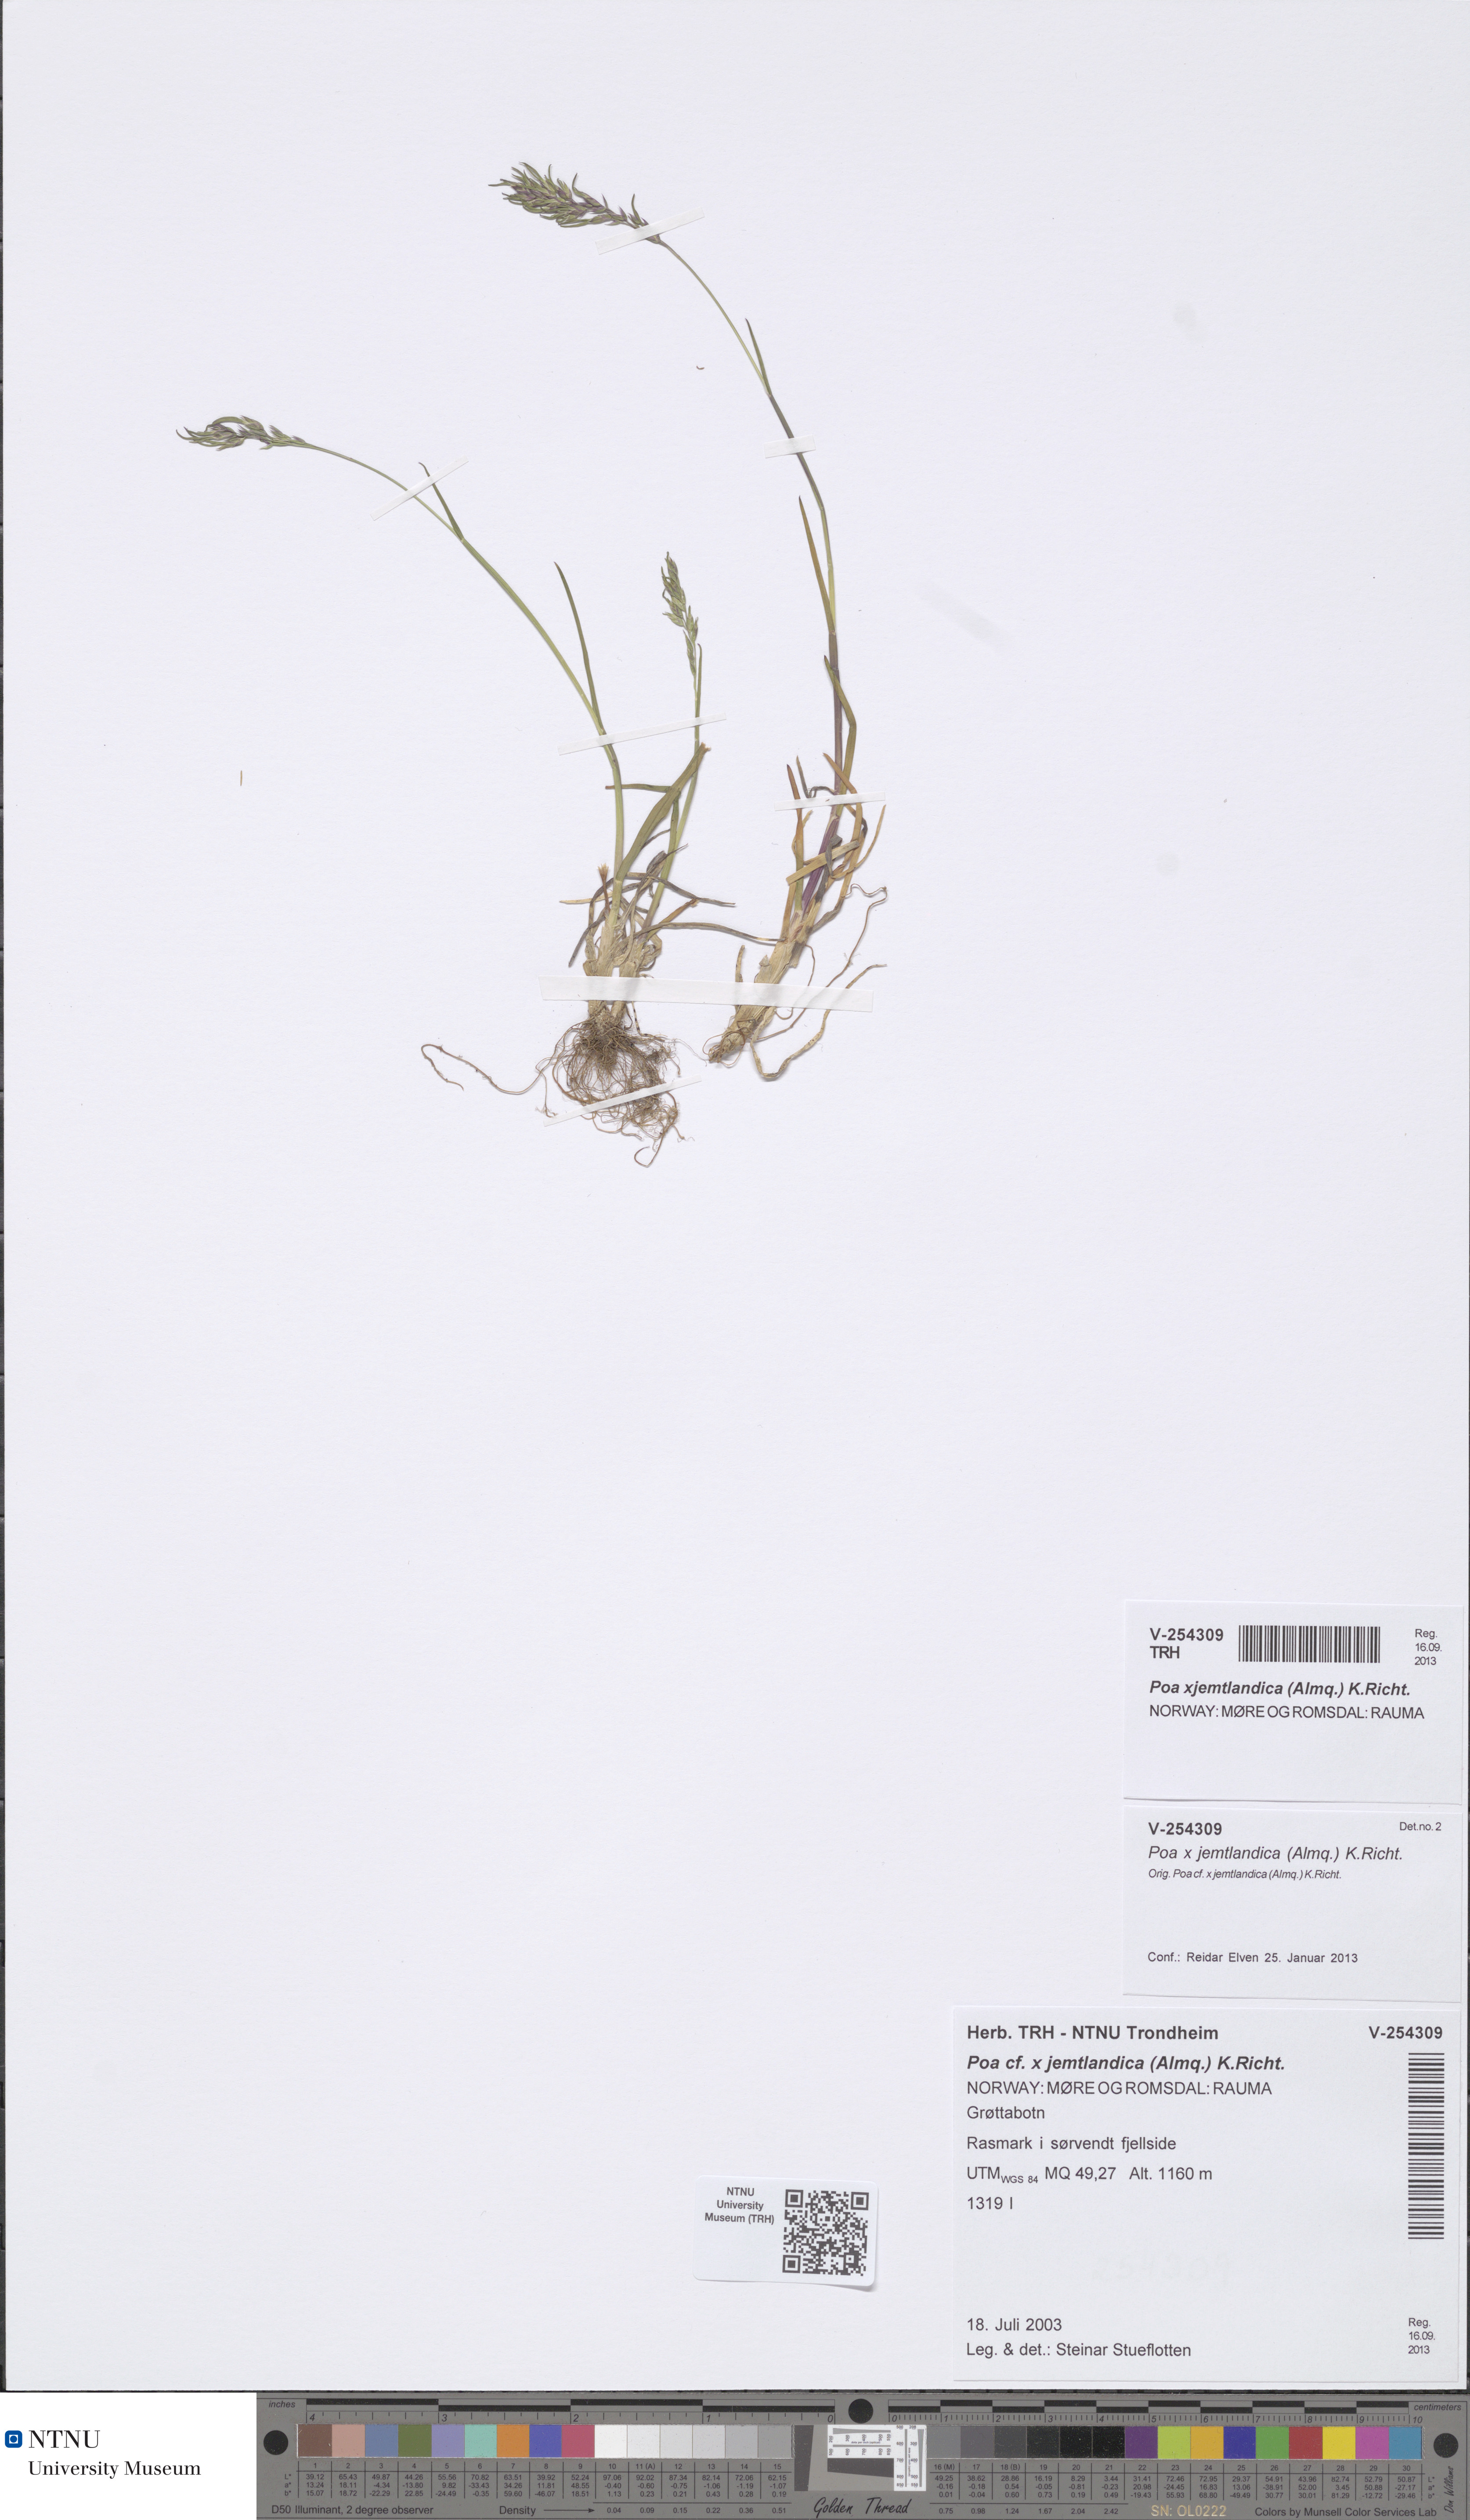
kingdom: Plantae
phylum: Tracheophyta
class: Liliopsida
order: Poales
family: Poaceae
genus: Poa
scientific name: Poa jemtlandica
